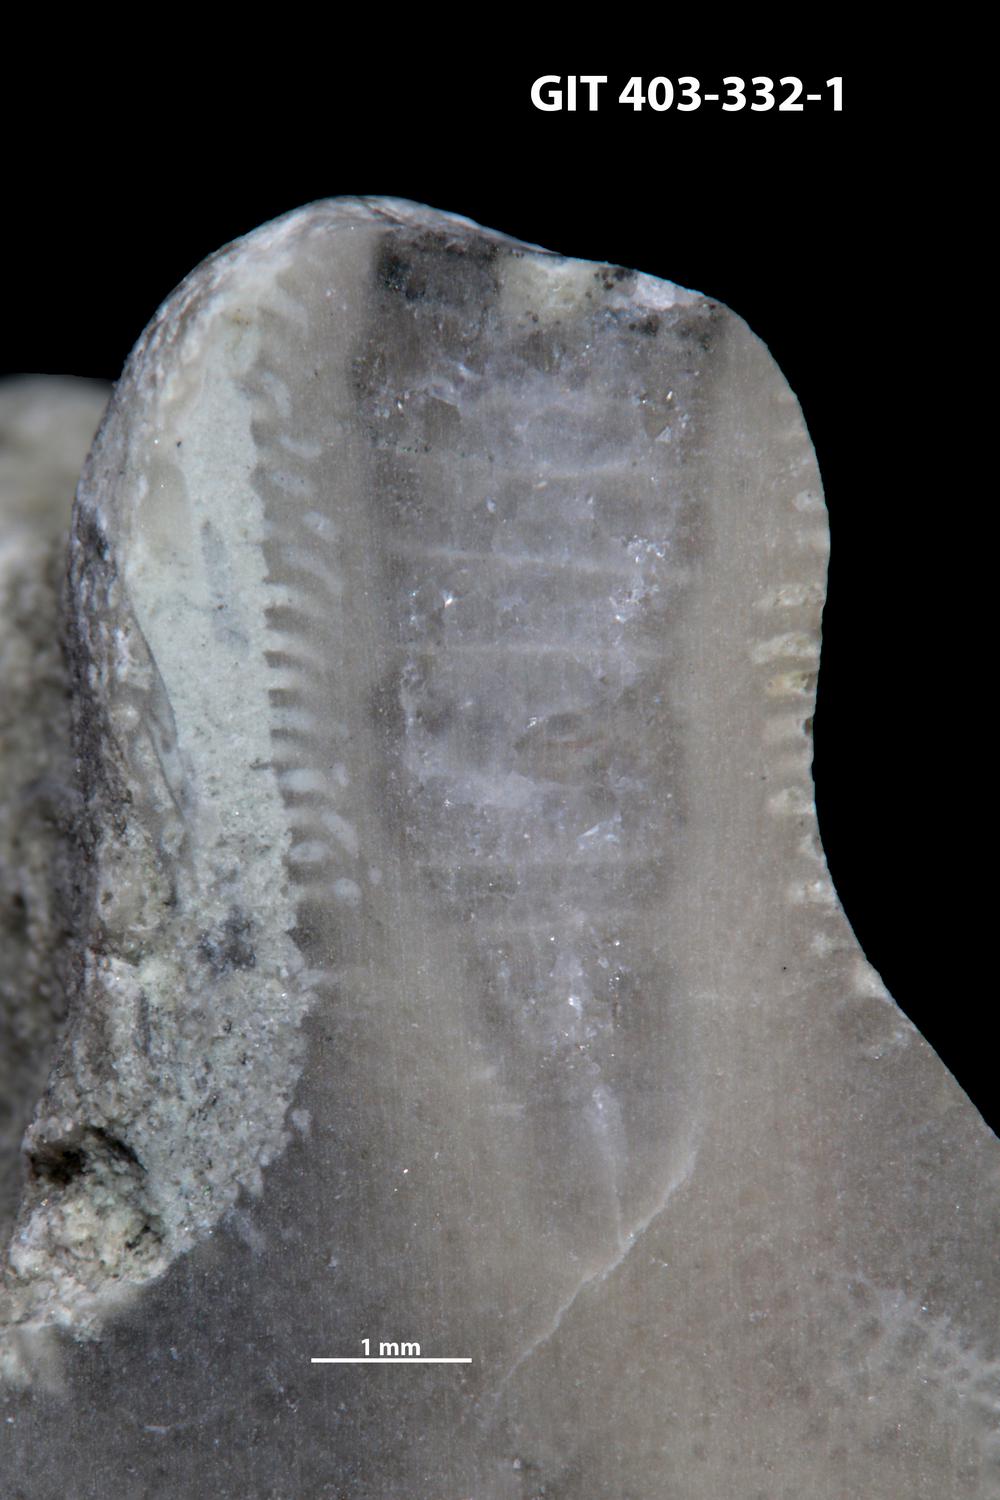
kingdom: Animalia
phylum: Cnidaria
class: Anthozoa
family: Tryplasmatidae
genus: Tryplasma
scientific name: Tryplasma
